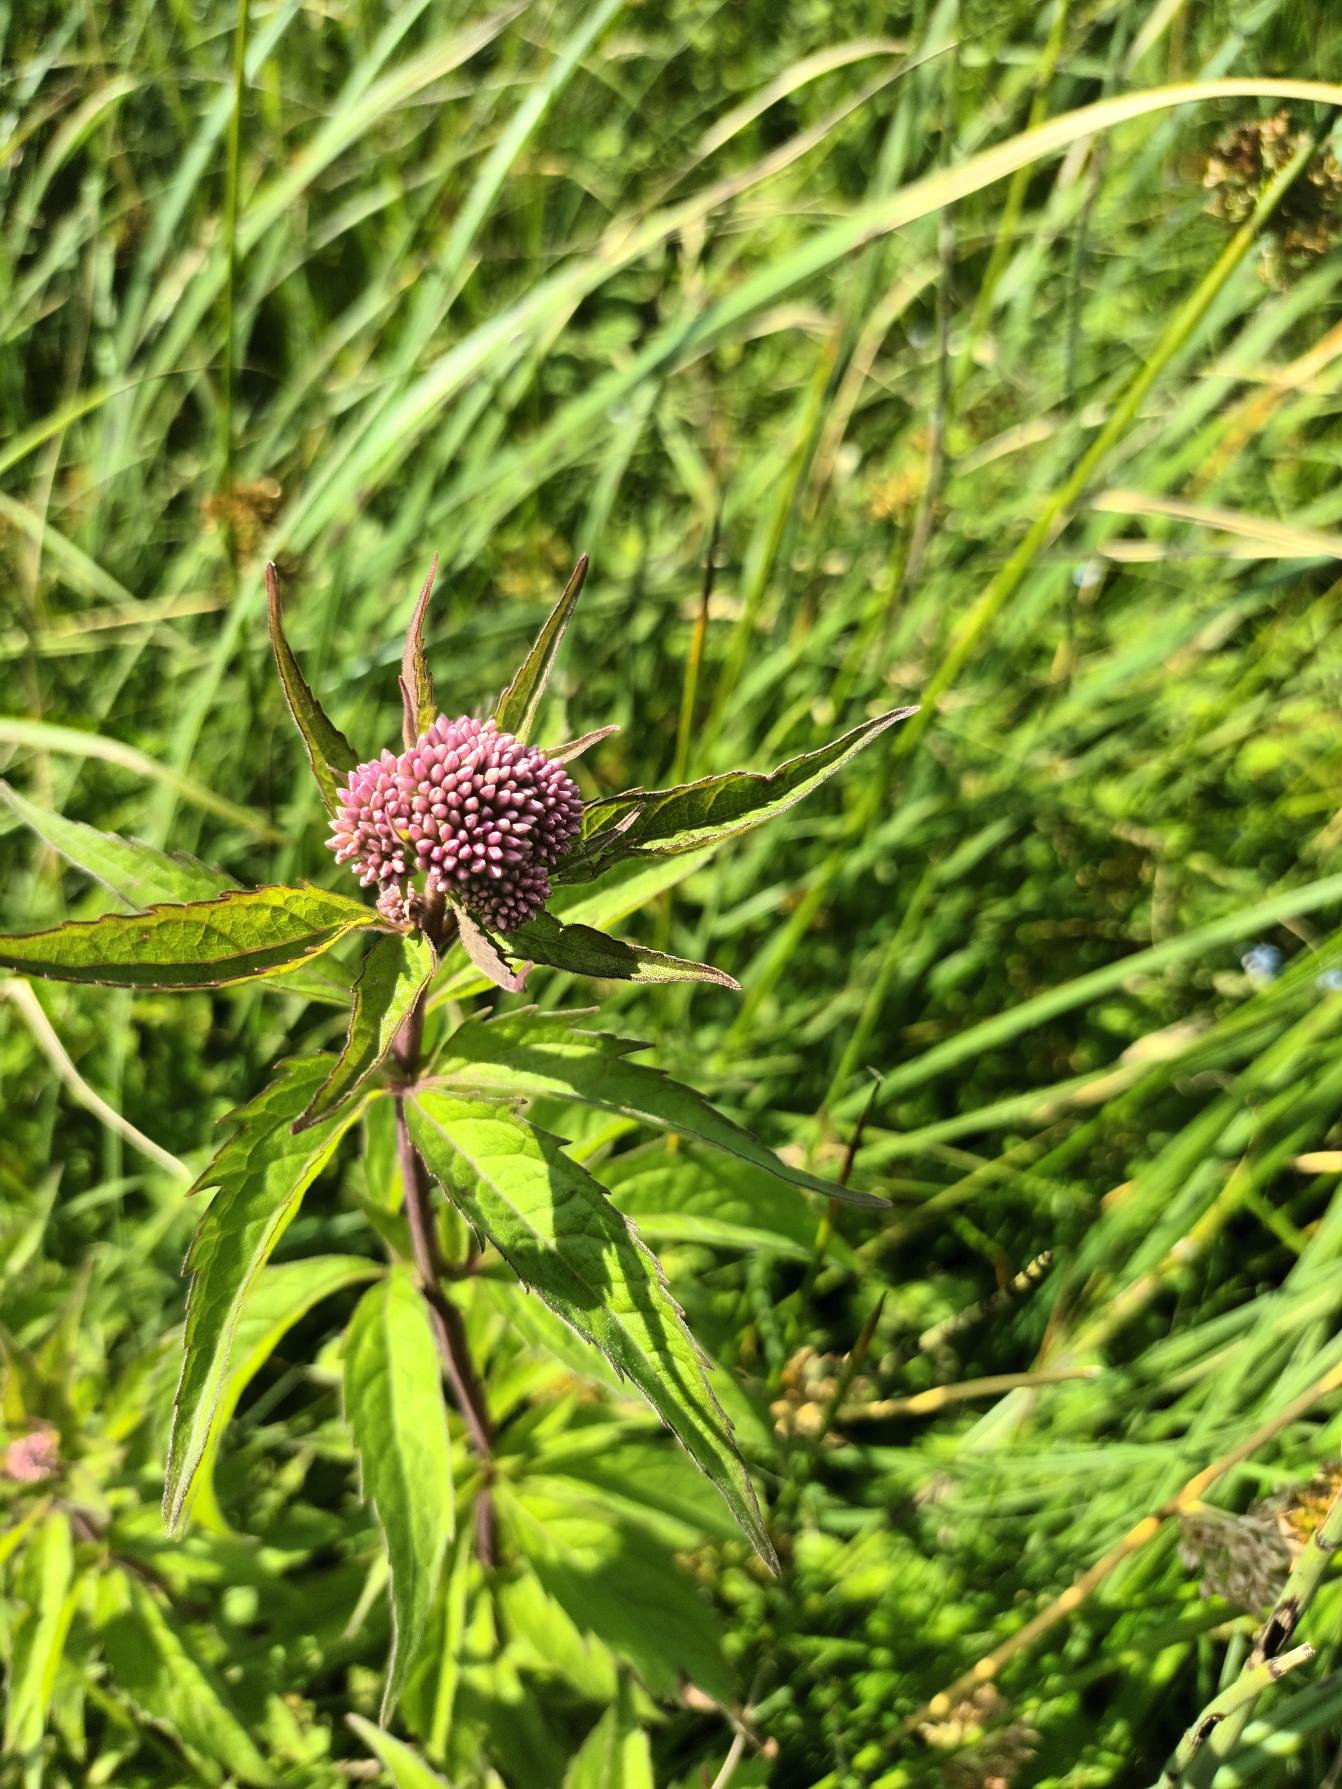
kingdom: Plantae
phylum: Tracheophyta
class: Magnoliopsida
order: Asterales
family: Asteraceae
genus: Eupatorium
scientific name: Eupatorium cannabinum
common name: Hjortetrøst
